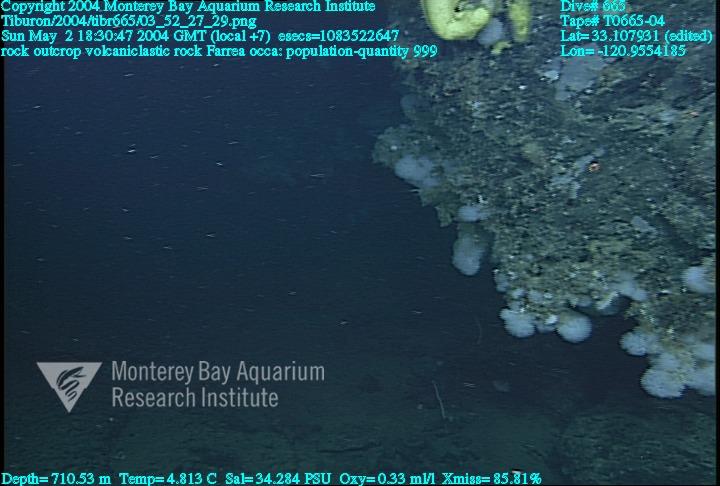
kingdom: Animalia
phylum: Porifera
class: Hexactinellida
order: Sceptrulophora
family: Farreidae
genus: Farrea
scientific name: Farrea occa
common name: Reversed glass sponge
